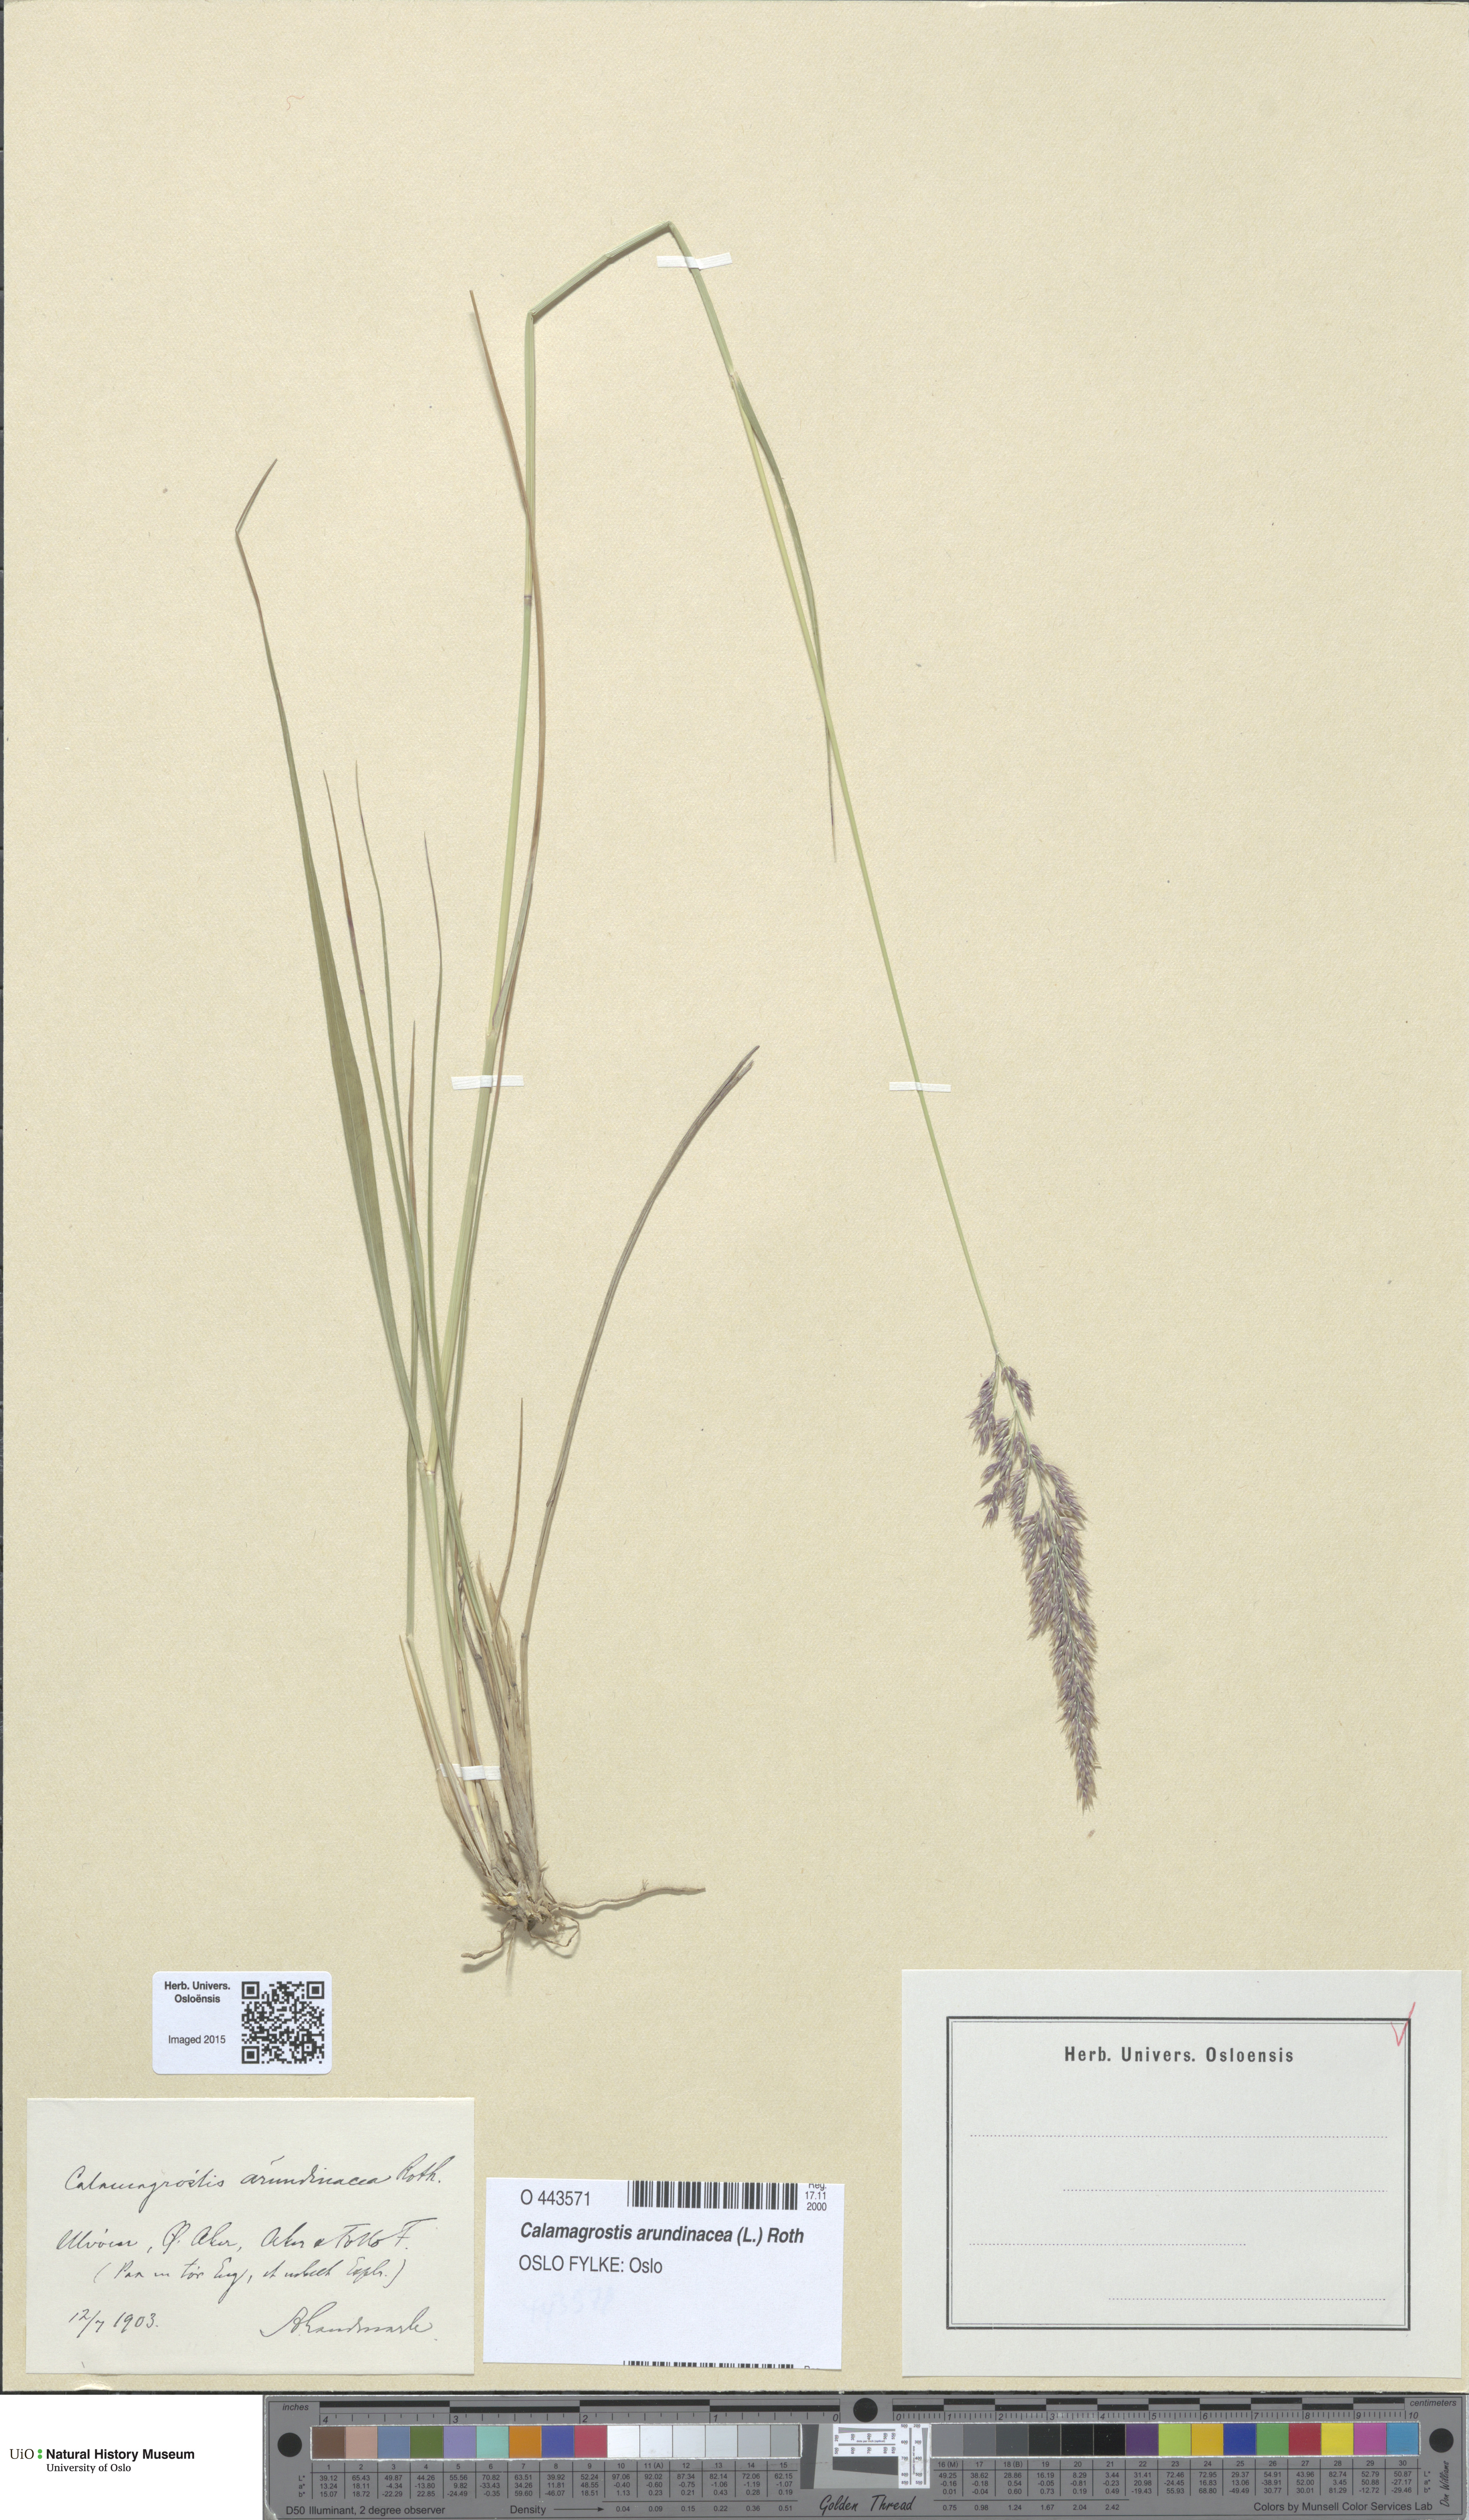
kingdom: Plantae
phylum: Tracheophyta
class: Liliopsida
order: Poales
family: Poaceae
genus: Calamagrostis
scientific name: Calamagrostis arundinacea
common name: Metskastik
